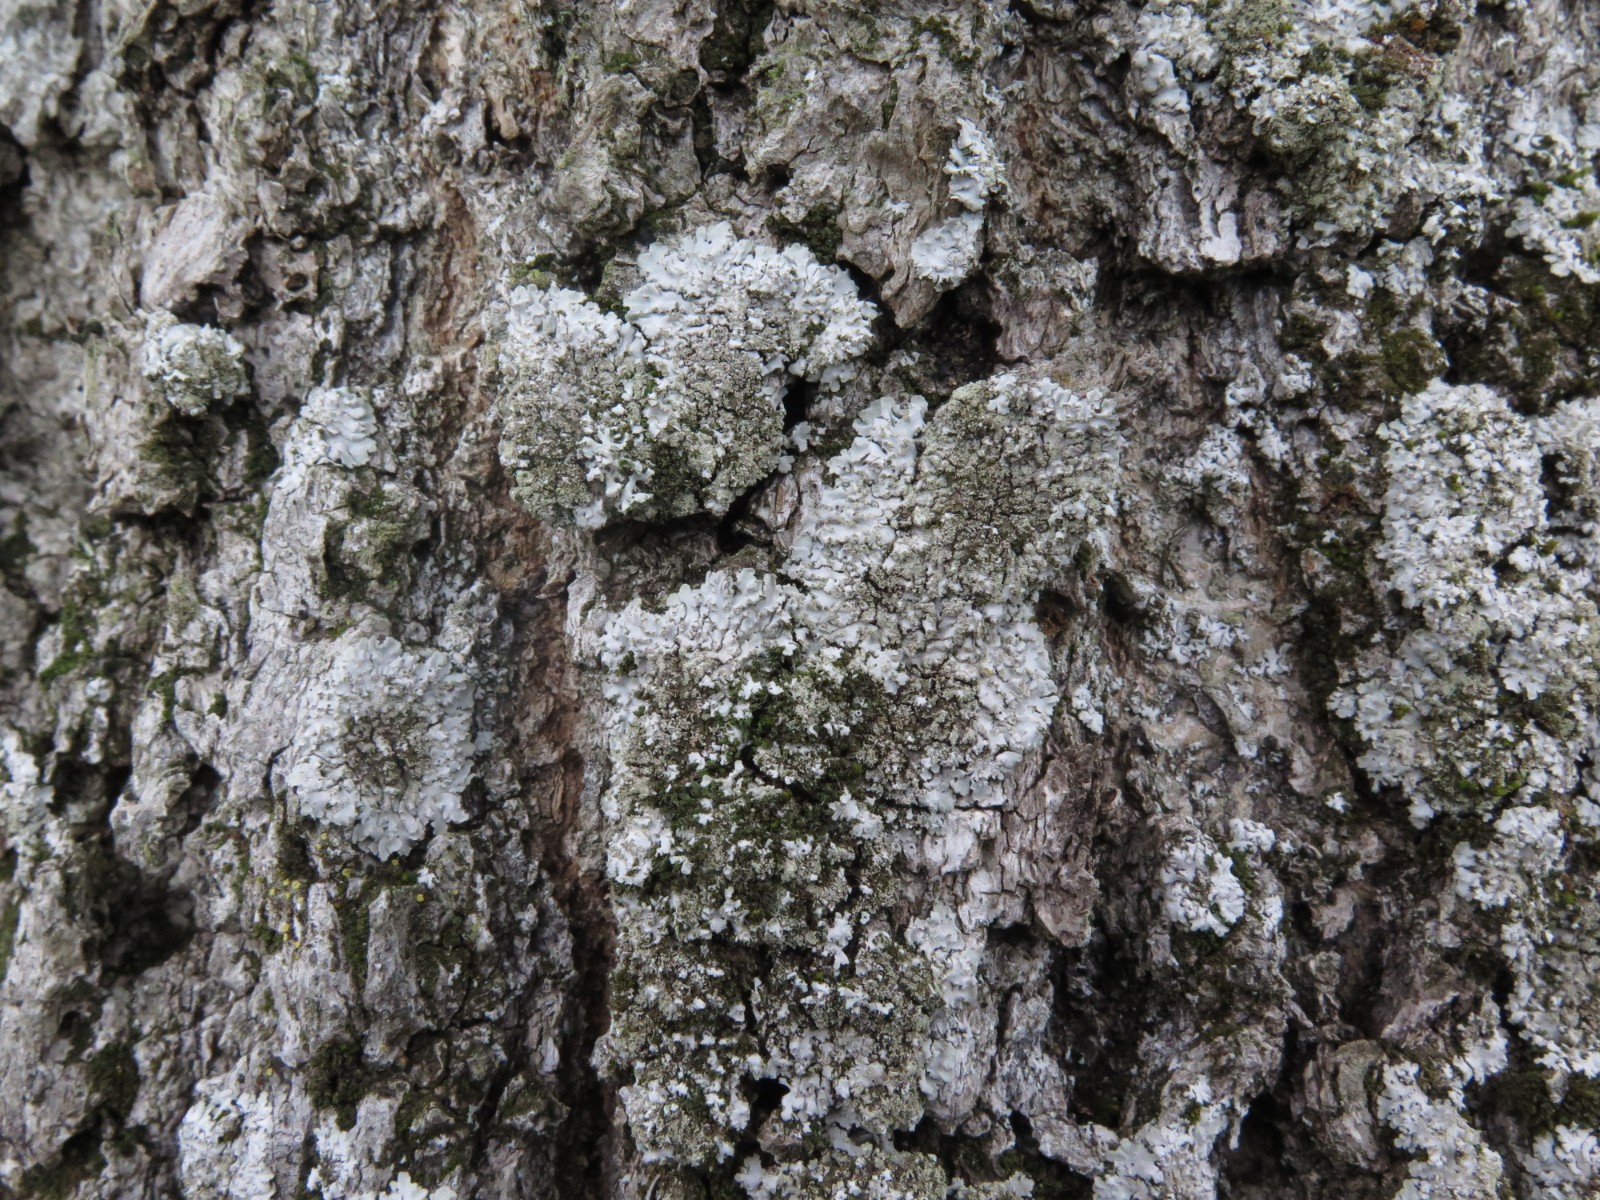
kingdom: Fungi
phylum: Ascomycota
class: Lecanoromycetes
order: Caliciales
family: Physciaceae
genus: Physconia
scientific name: Physconia enteroxantha
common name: grynet dugrosetlav
